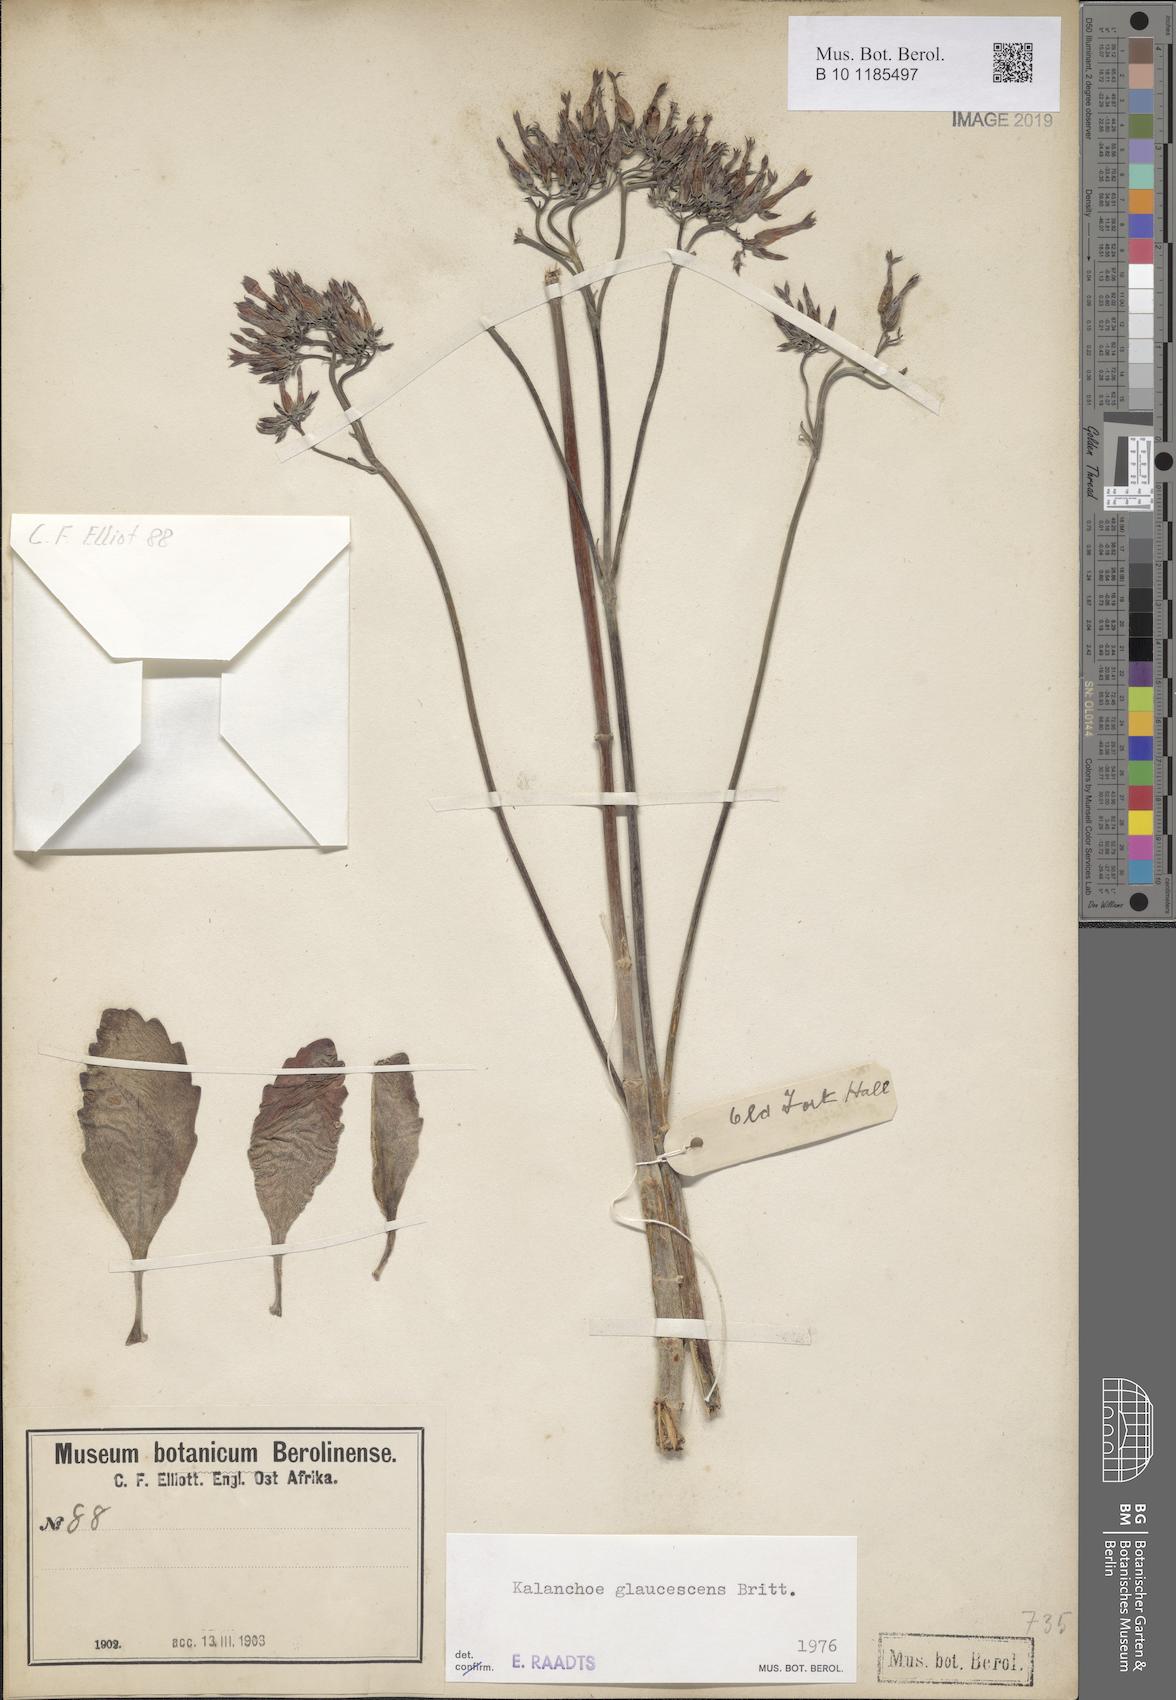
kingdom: Plantae
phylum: Tracheophyta
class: Magnoliopsida
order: Saxifragales
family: Crassulaceae
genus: Kalanchoe
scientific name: Kalanchoe glaucescens
